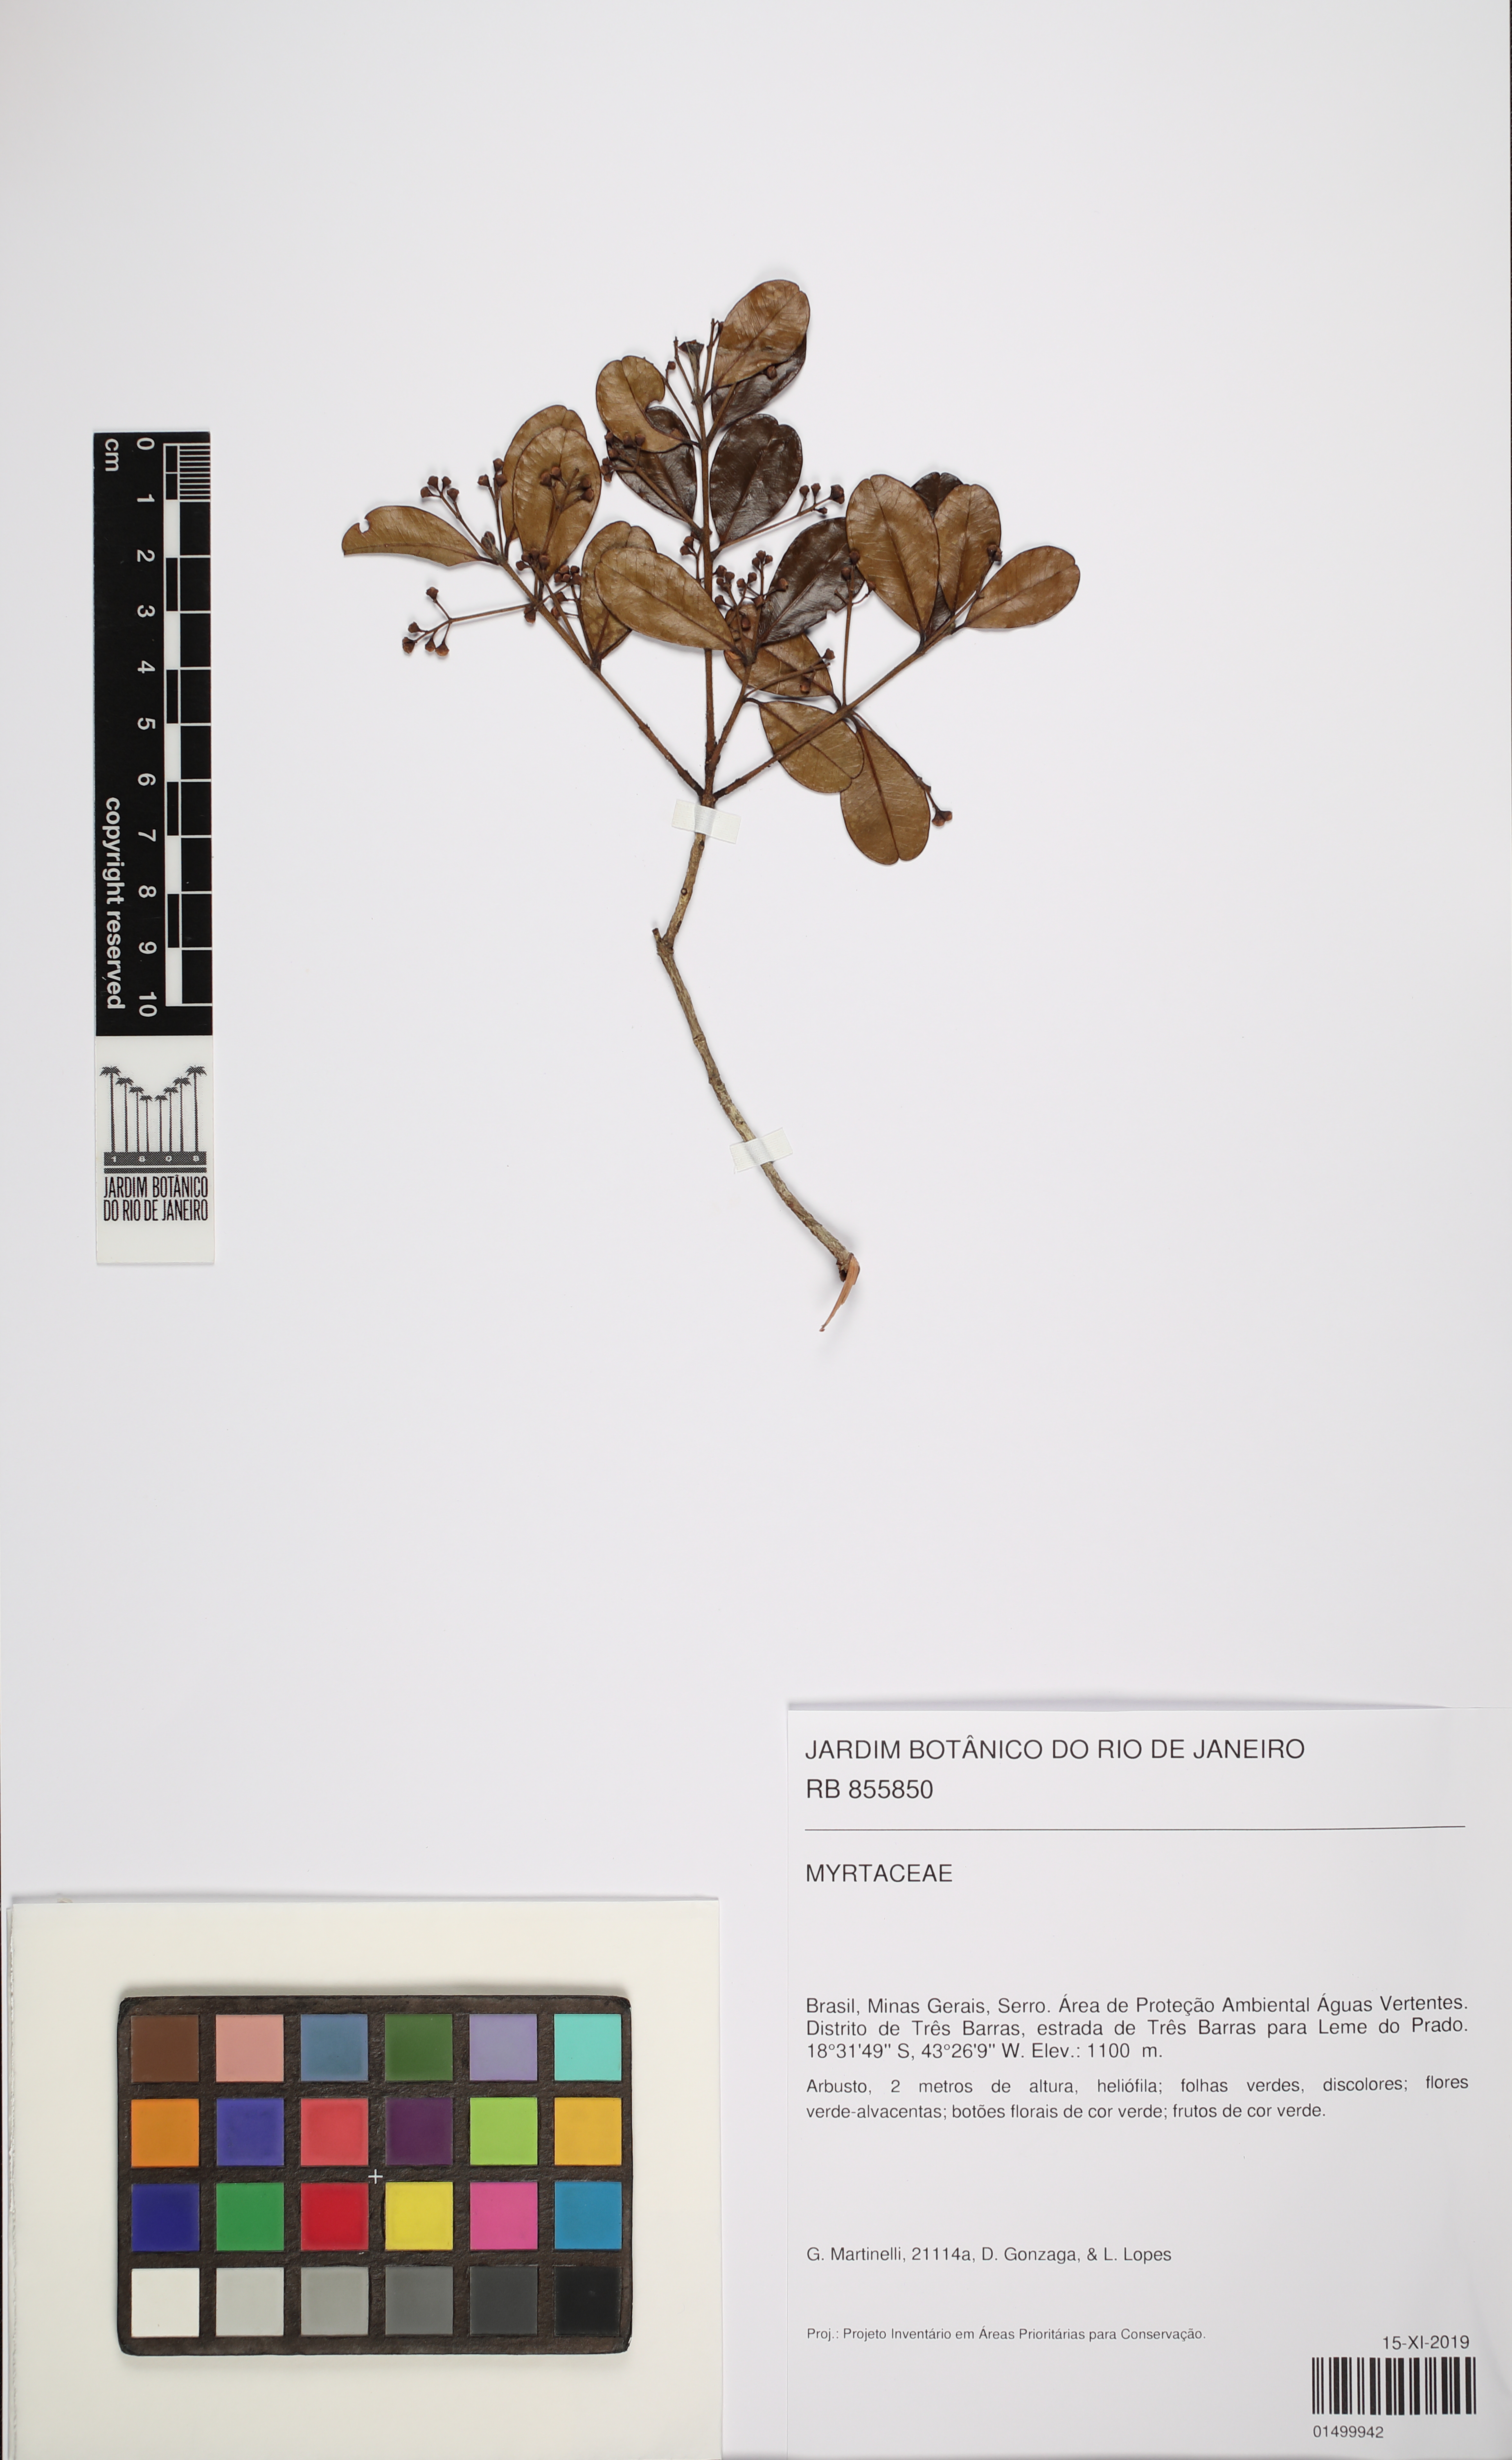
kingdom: Plantae
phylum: Tracheophyta
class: Magnoliopsida
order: Myrtales
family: Myrtaceae
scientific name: Myrtaceae
